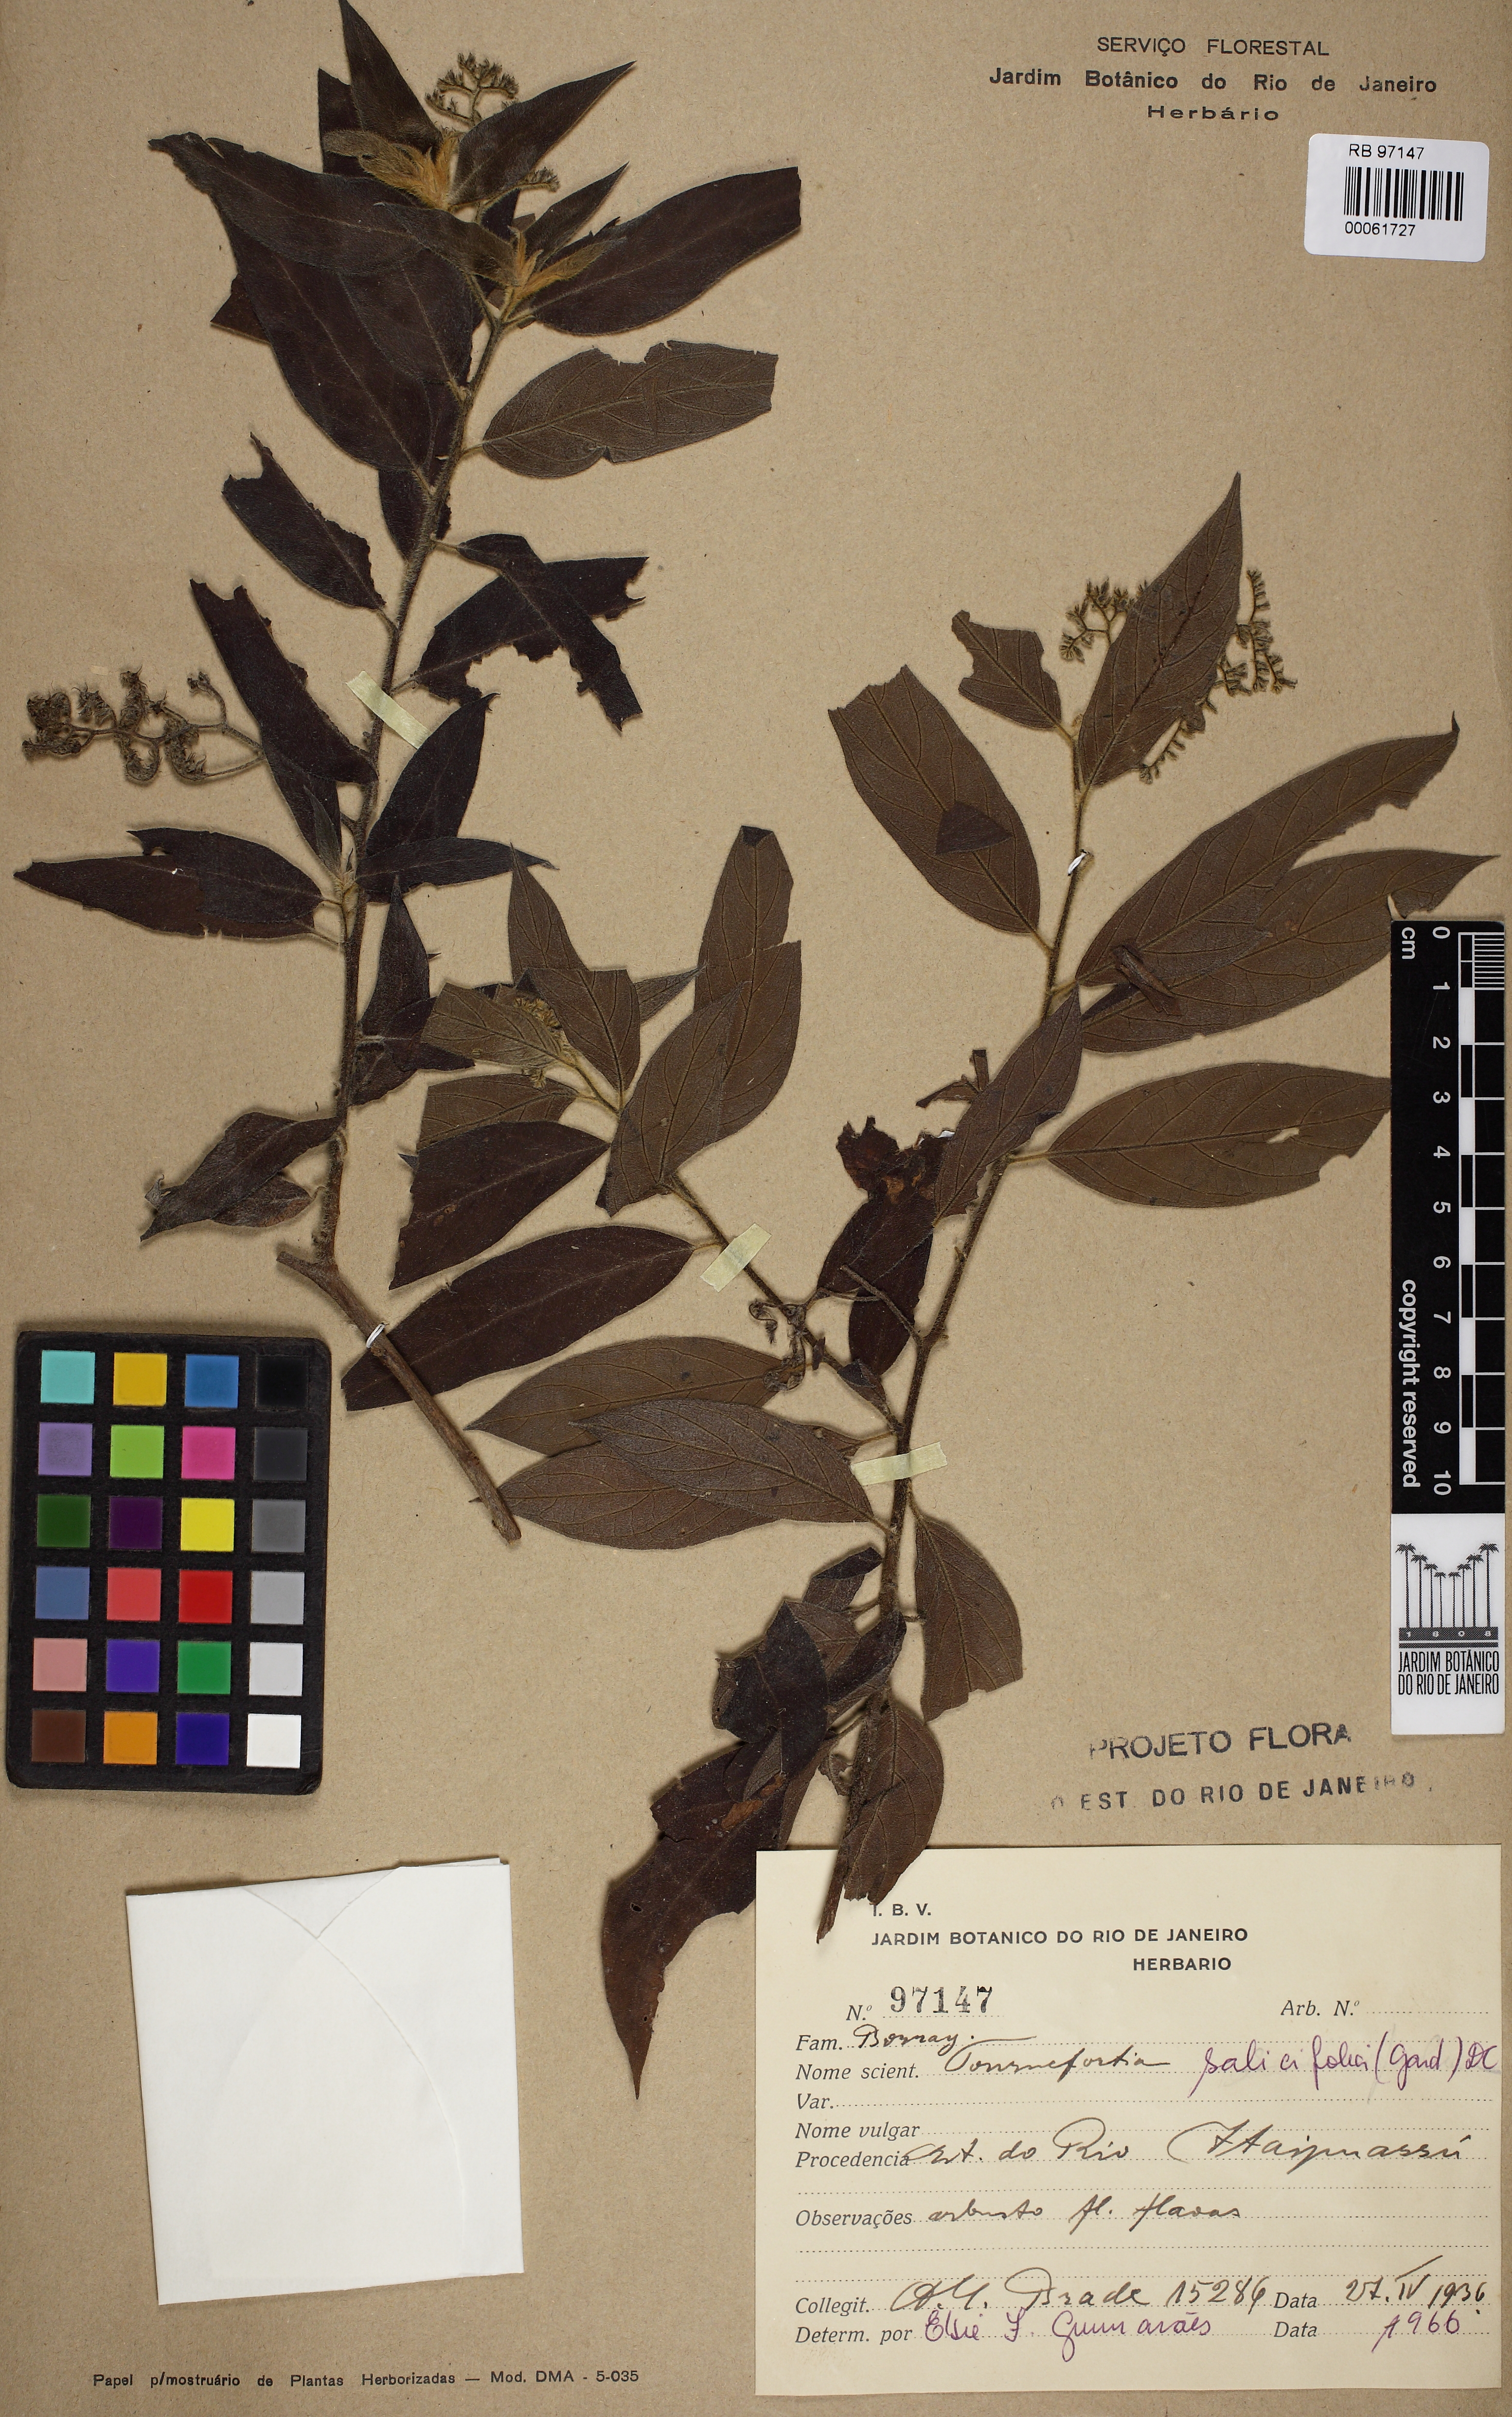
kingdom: Plantae
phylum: Tracheophyta
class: Magnoliopsida
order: Boraginales
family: Heliotropiaceae
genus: Myriopus
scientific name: Myriopus salicifolius
